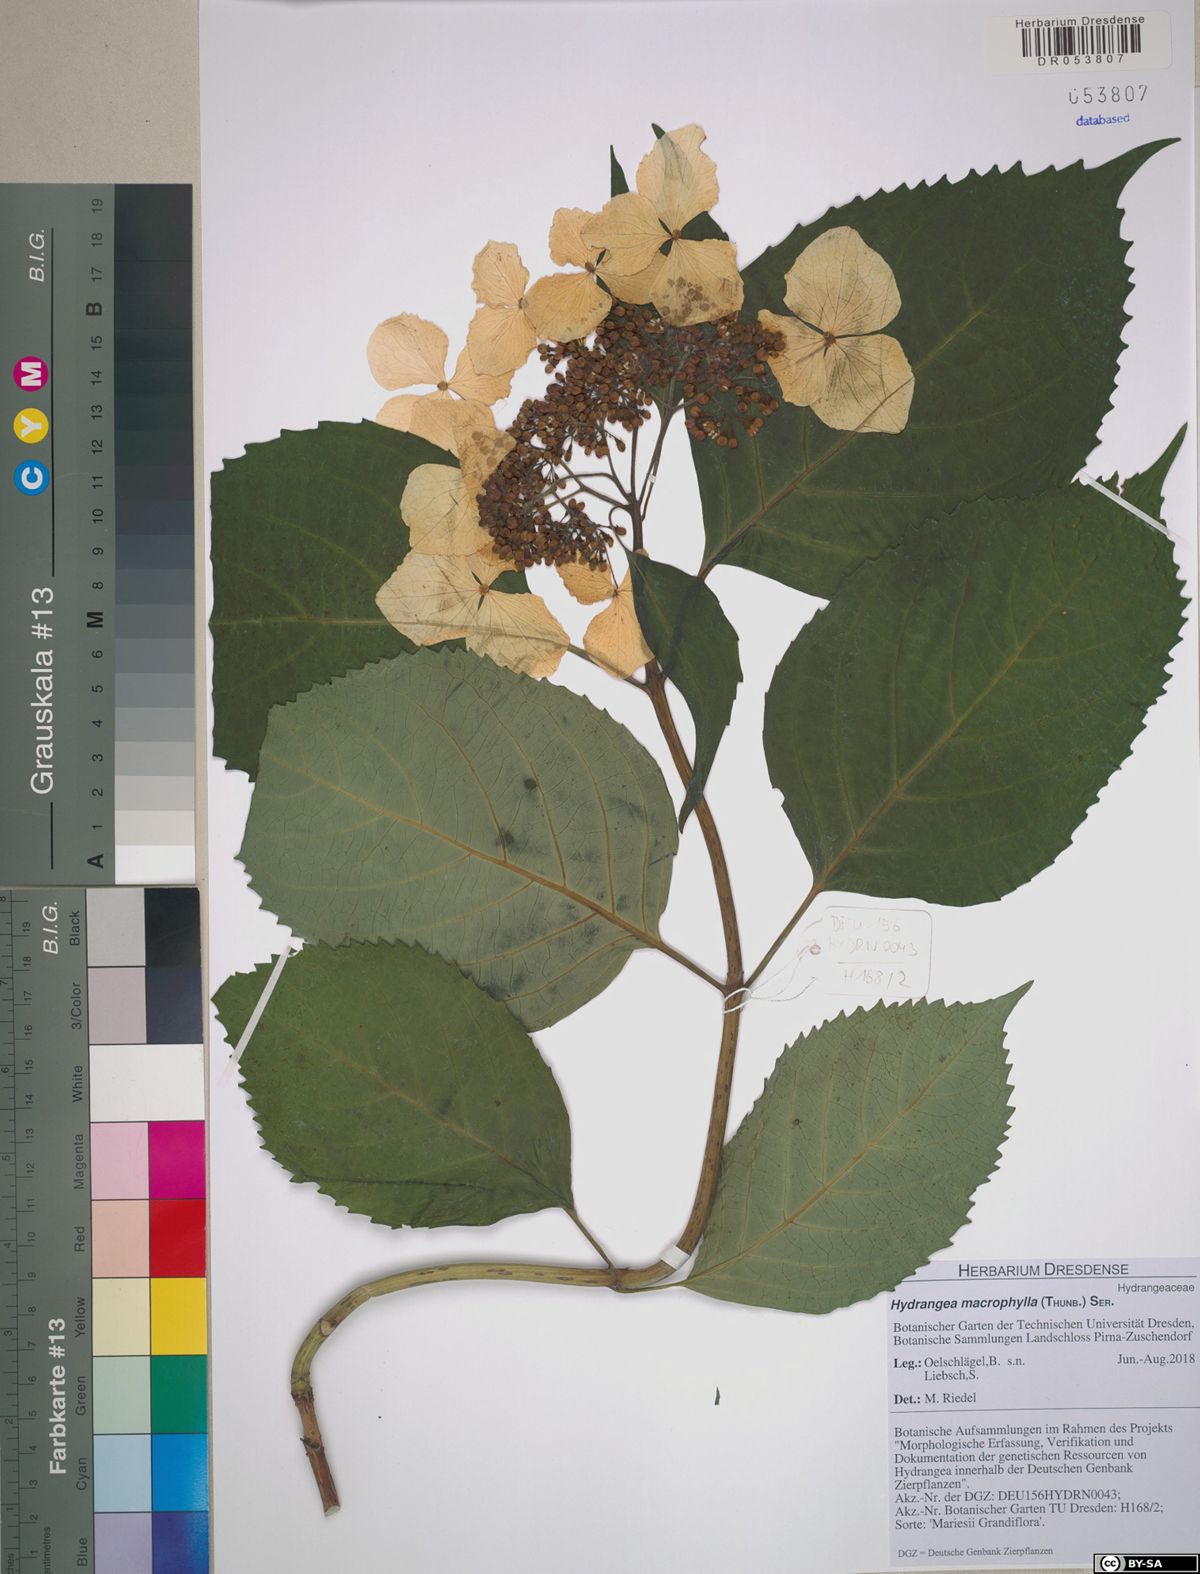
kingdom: Plantae
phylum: Tracheophyta
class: Magnoliopsida
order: Cornales
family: Hydrangeaceae
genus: Hydrangea
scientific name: Hydrangea macrophylla
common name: Hydrangea
